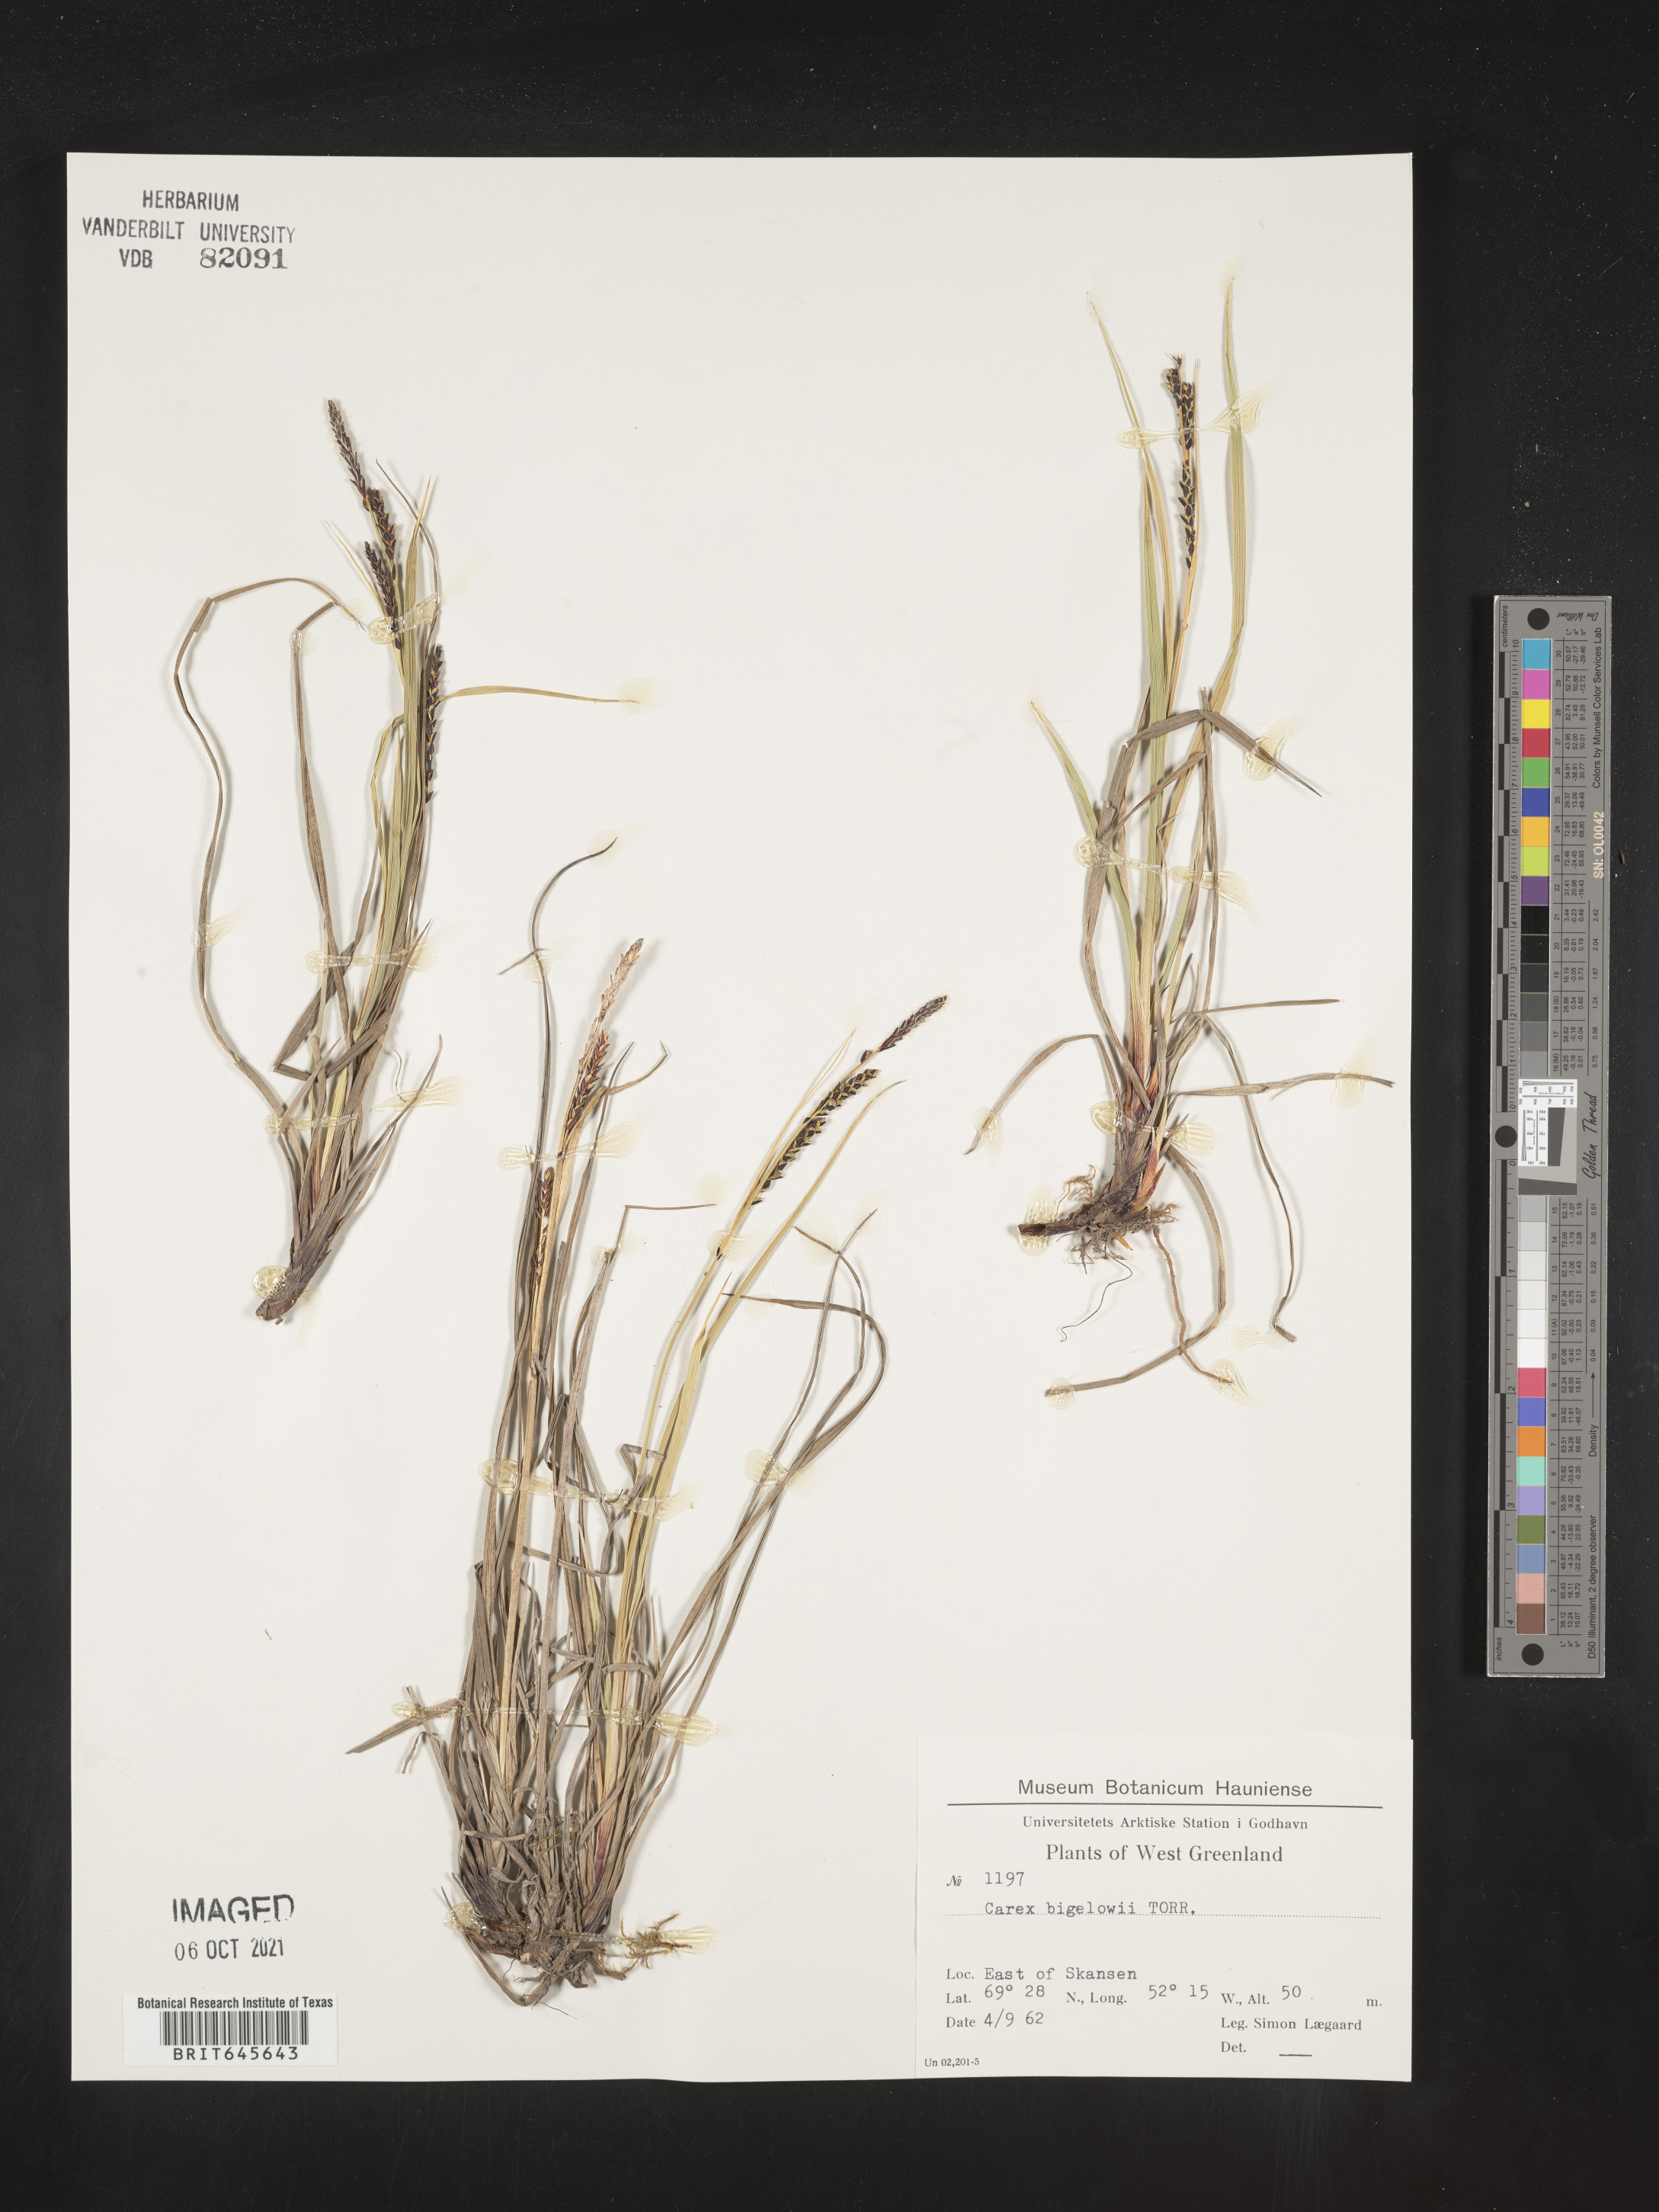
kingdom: Plantae
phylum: Tracheophyta
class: Liliopsida
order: Poales
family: Cyperaceae
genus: Carex
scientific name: Carex bigelowii
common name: Stiff sedge
